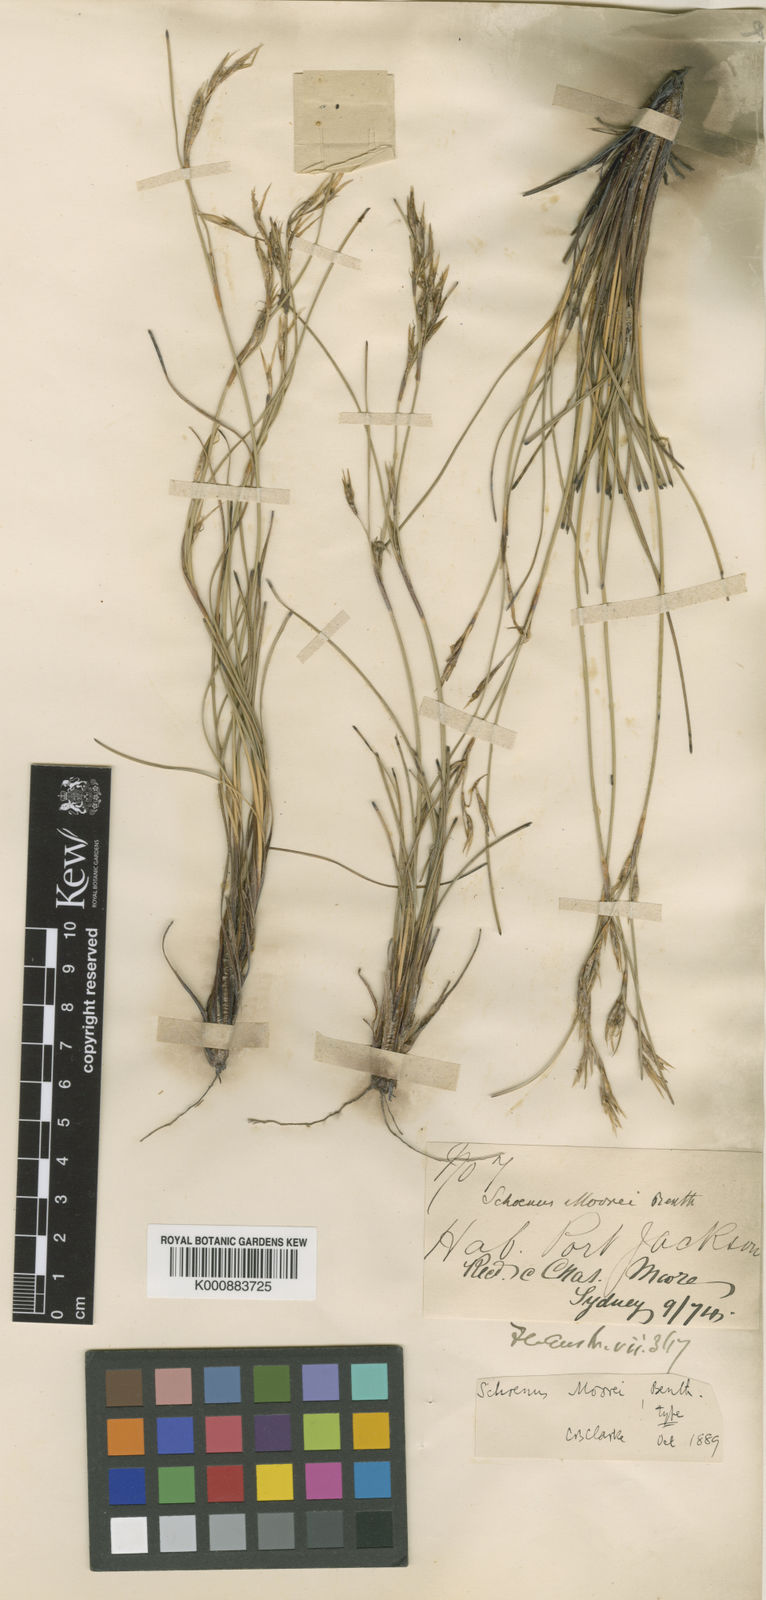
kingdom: Plantae
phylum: Tracheophyta
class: Liliopsida
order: Poales
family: Cyperaceae
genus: Schoenus
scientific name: Schoenus moorei
